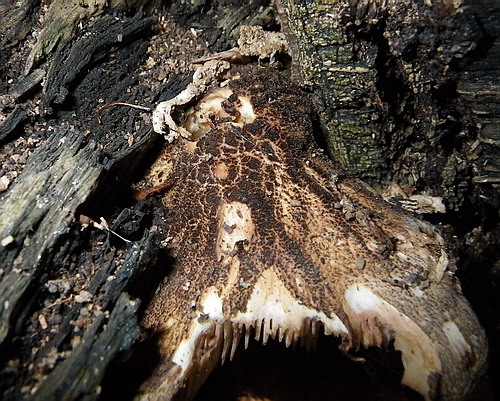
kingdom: Fungi
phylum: Basidiomycota
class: Agaricomycetes
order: Agaricales
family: Pluteaceae
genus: Pluteus
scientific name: Pluteus umbrosus
